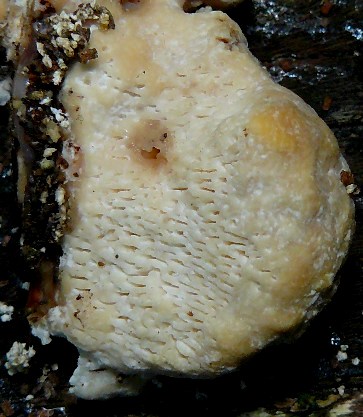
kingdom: Fungi
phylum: Basidiomycota
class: Agaricomycetes
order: Polyporales
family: Polyporaceae
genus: Trametes
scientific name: Trametes gibbosa
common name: puklet læderporesvamp
